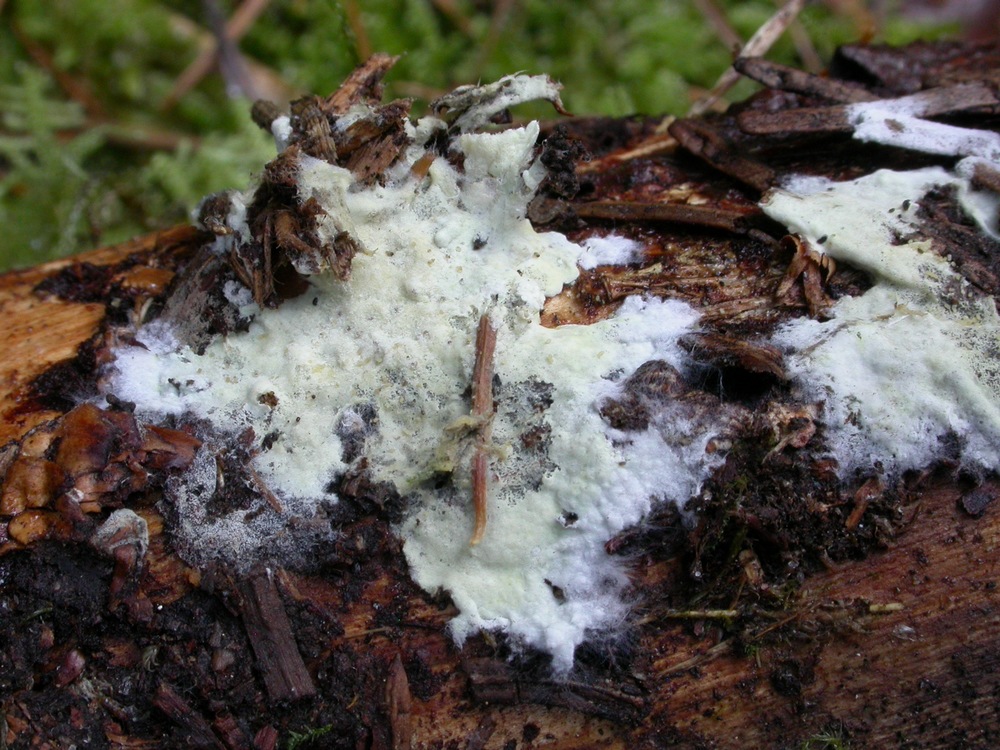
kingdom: Fungi
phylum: Basidiomycota
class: Agaricomycetes
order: Atheliales
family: Atheliaceae
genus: Amphinema
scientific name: Amphinema byssoides
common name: almindelig rodhinde
